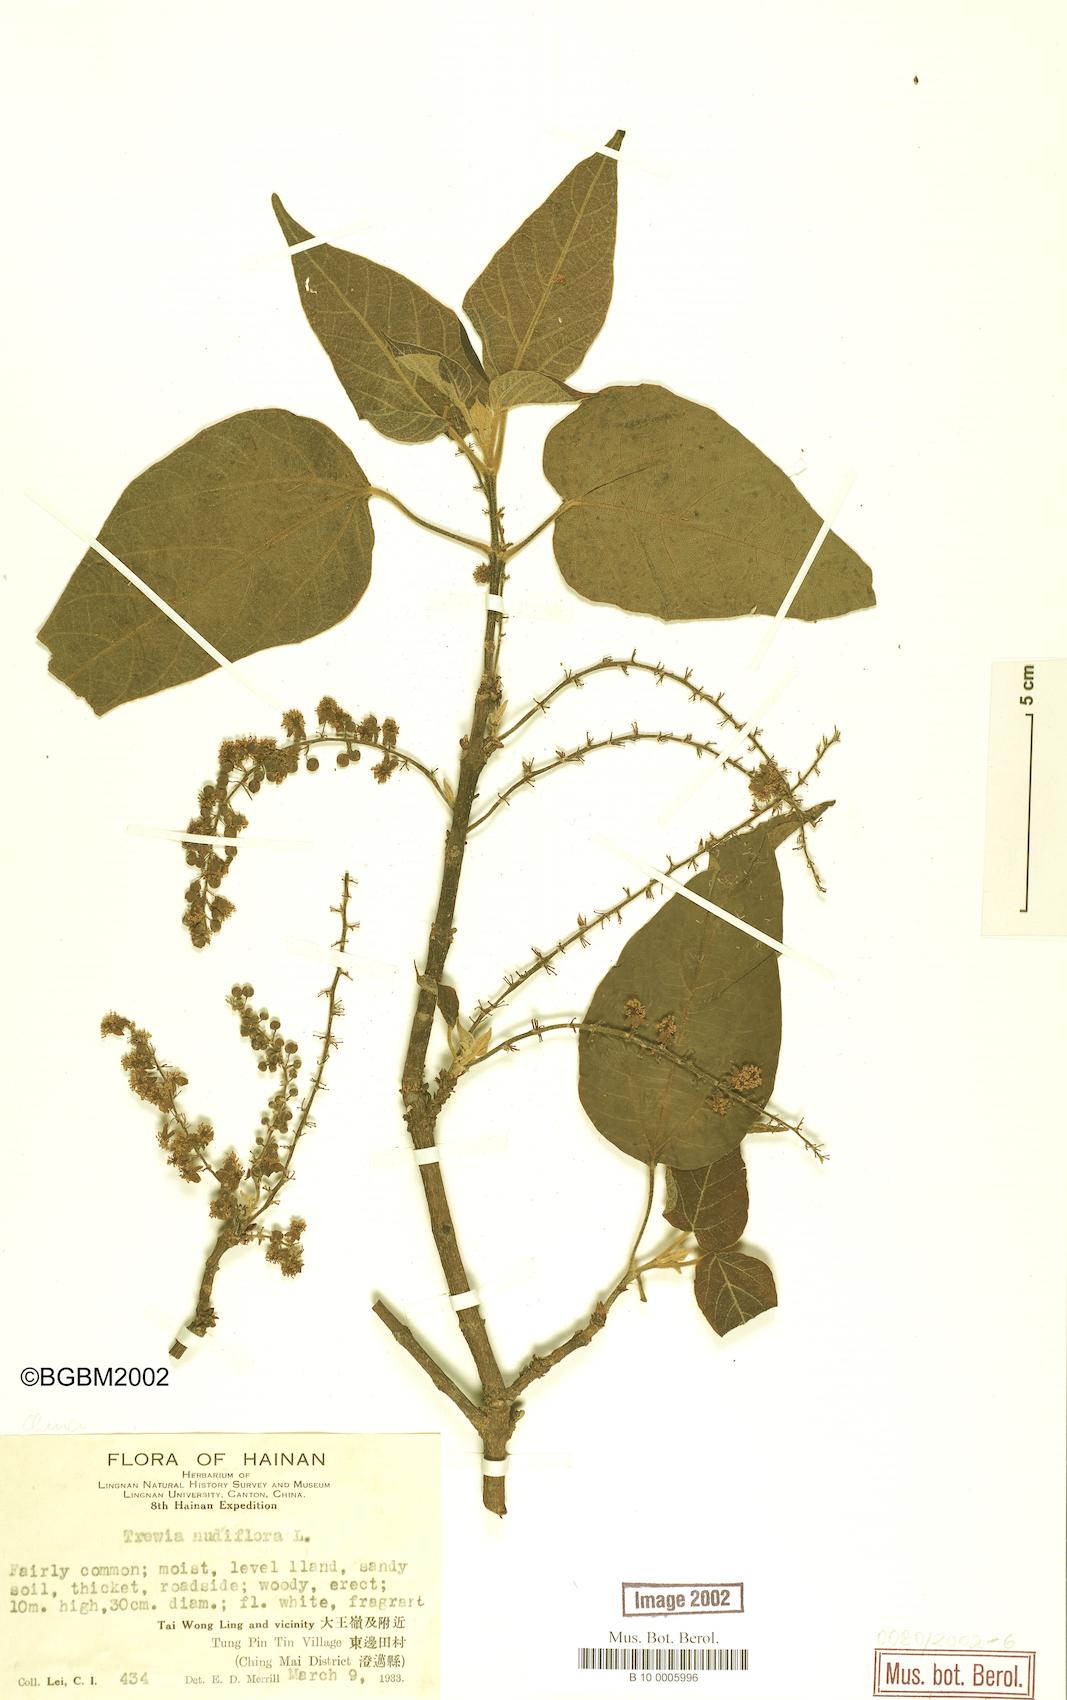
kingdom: Plantae
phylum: Tracheophyta
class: Magnoliopsida
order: Malpighiales
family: Euphorbiaceae
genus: Trewia
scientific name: Trewia nudiflora
